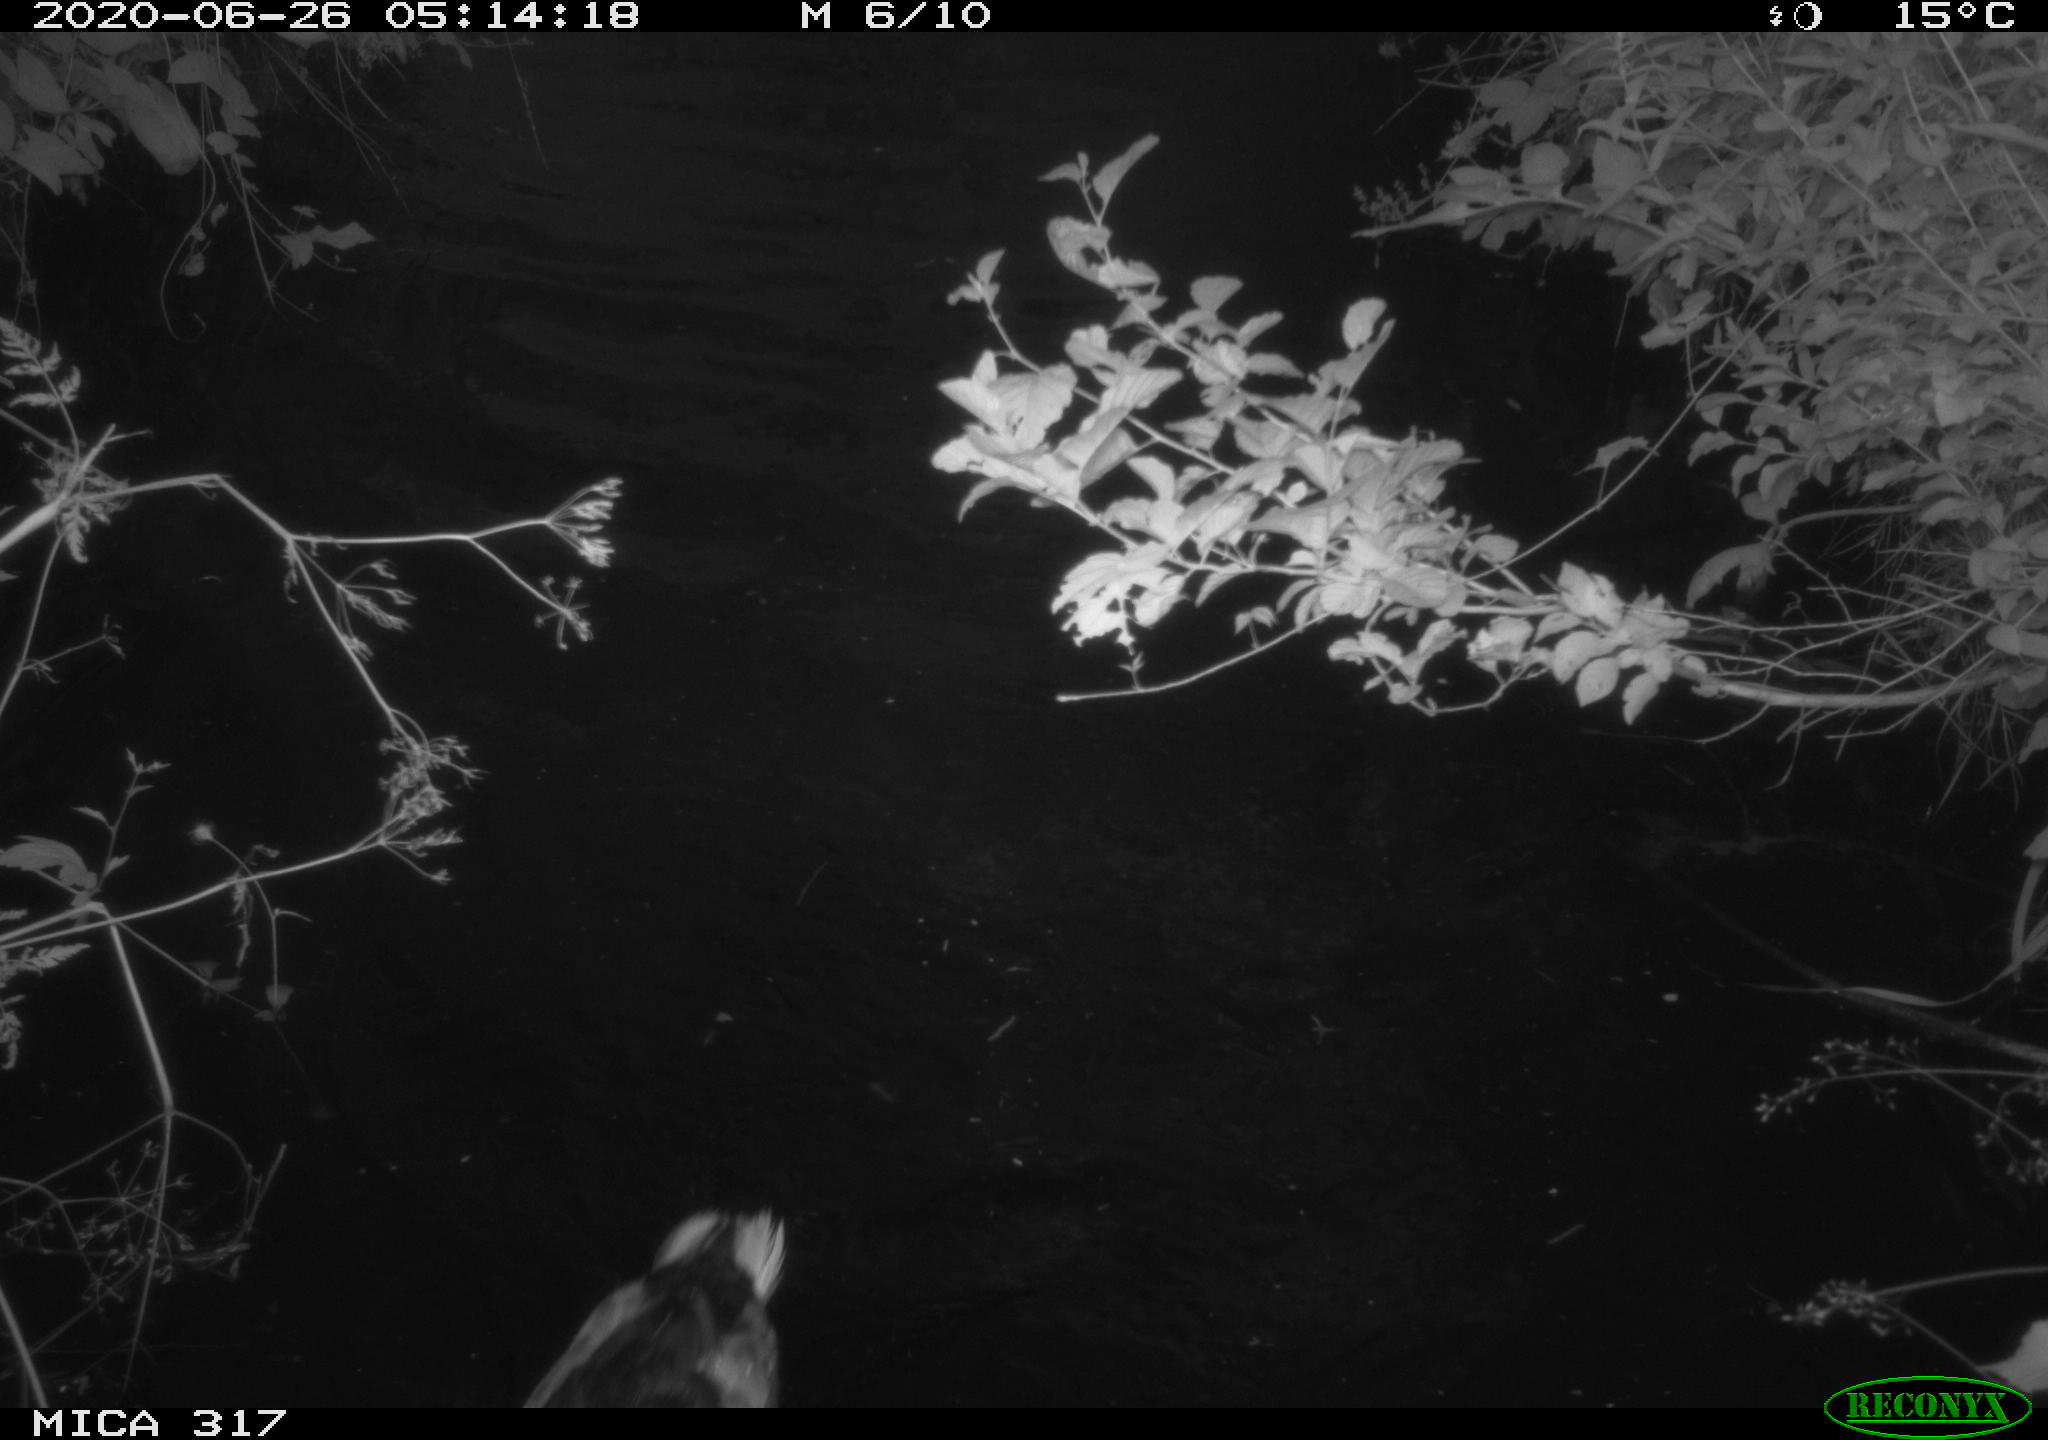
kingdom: Animalia
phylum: Chordata
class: Aves
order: Anseriformes
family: Anatidae
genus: Anas
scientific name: Anas platyrhynchos
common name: Mallard
